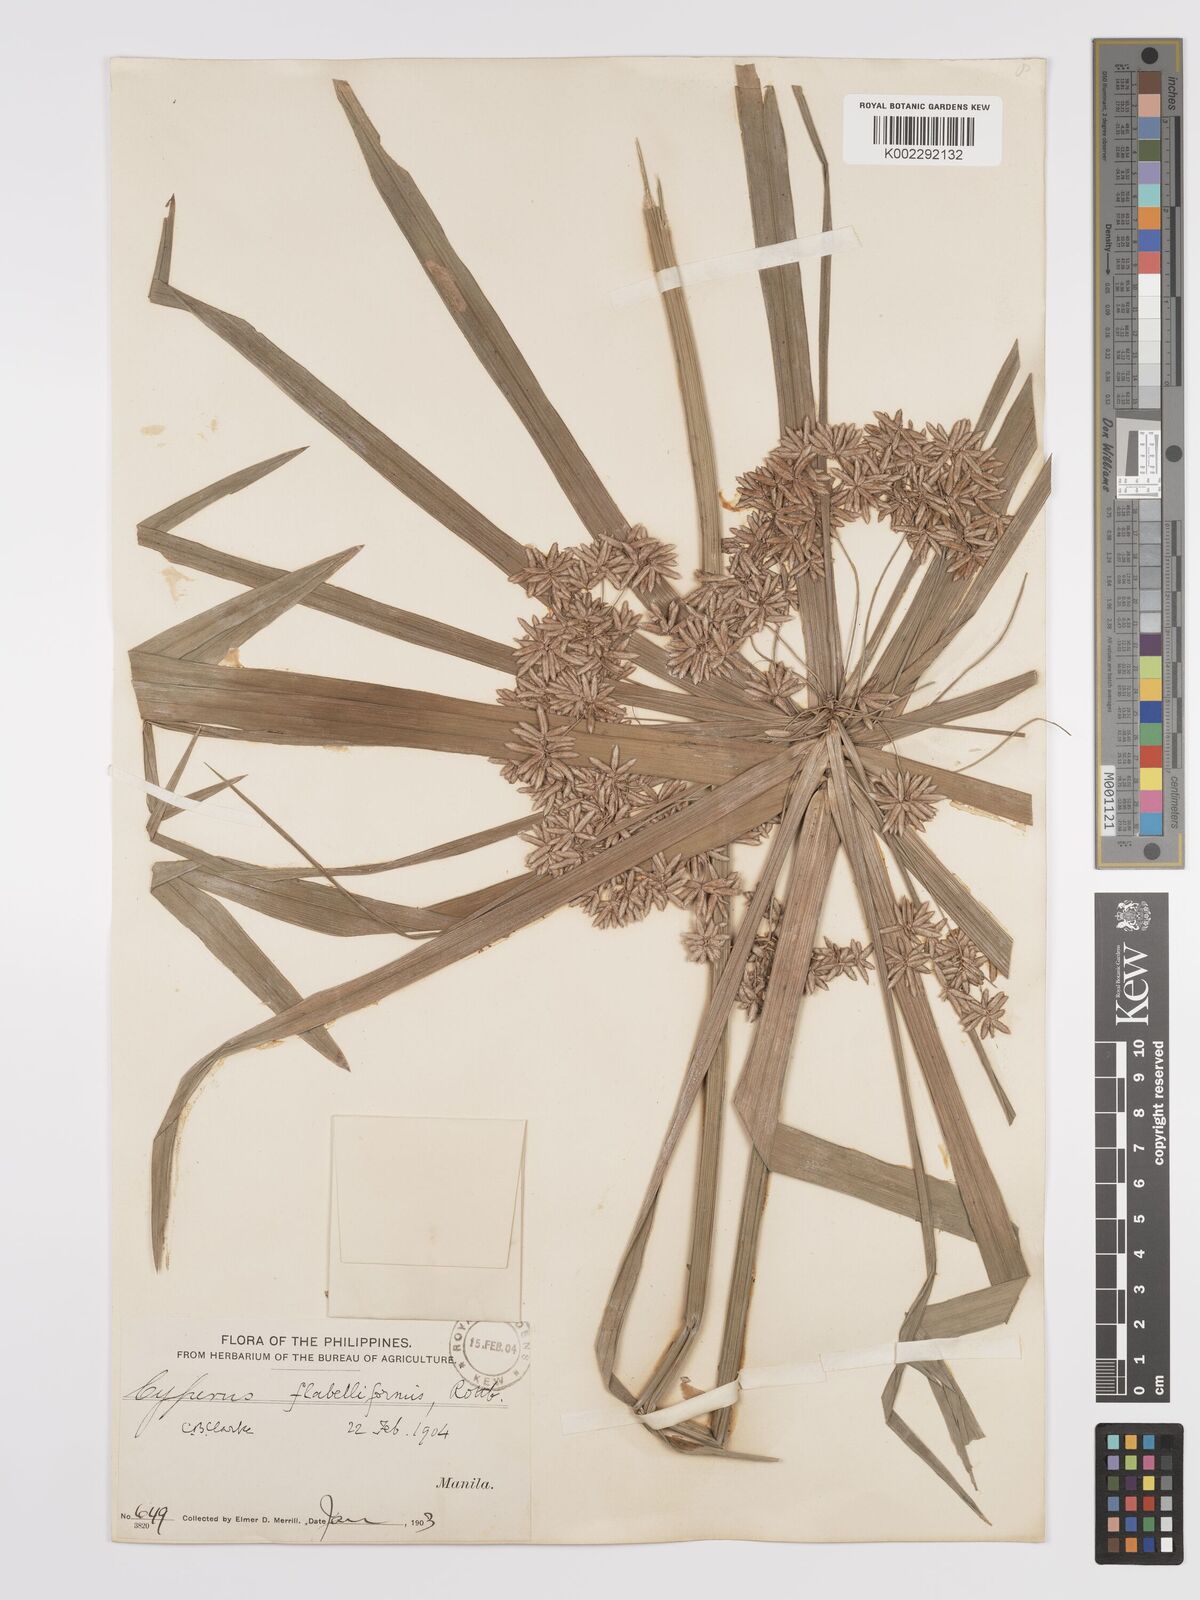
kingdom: Plantae
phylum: Tracheophyta
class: Liliopsida
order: Poales
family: Cyperaceae
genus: Cyperus
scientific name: Cyperus alternifolius
